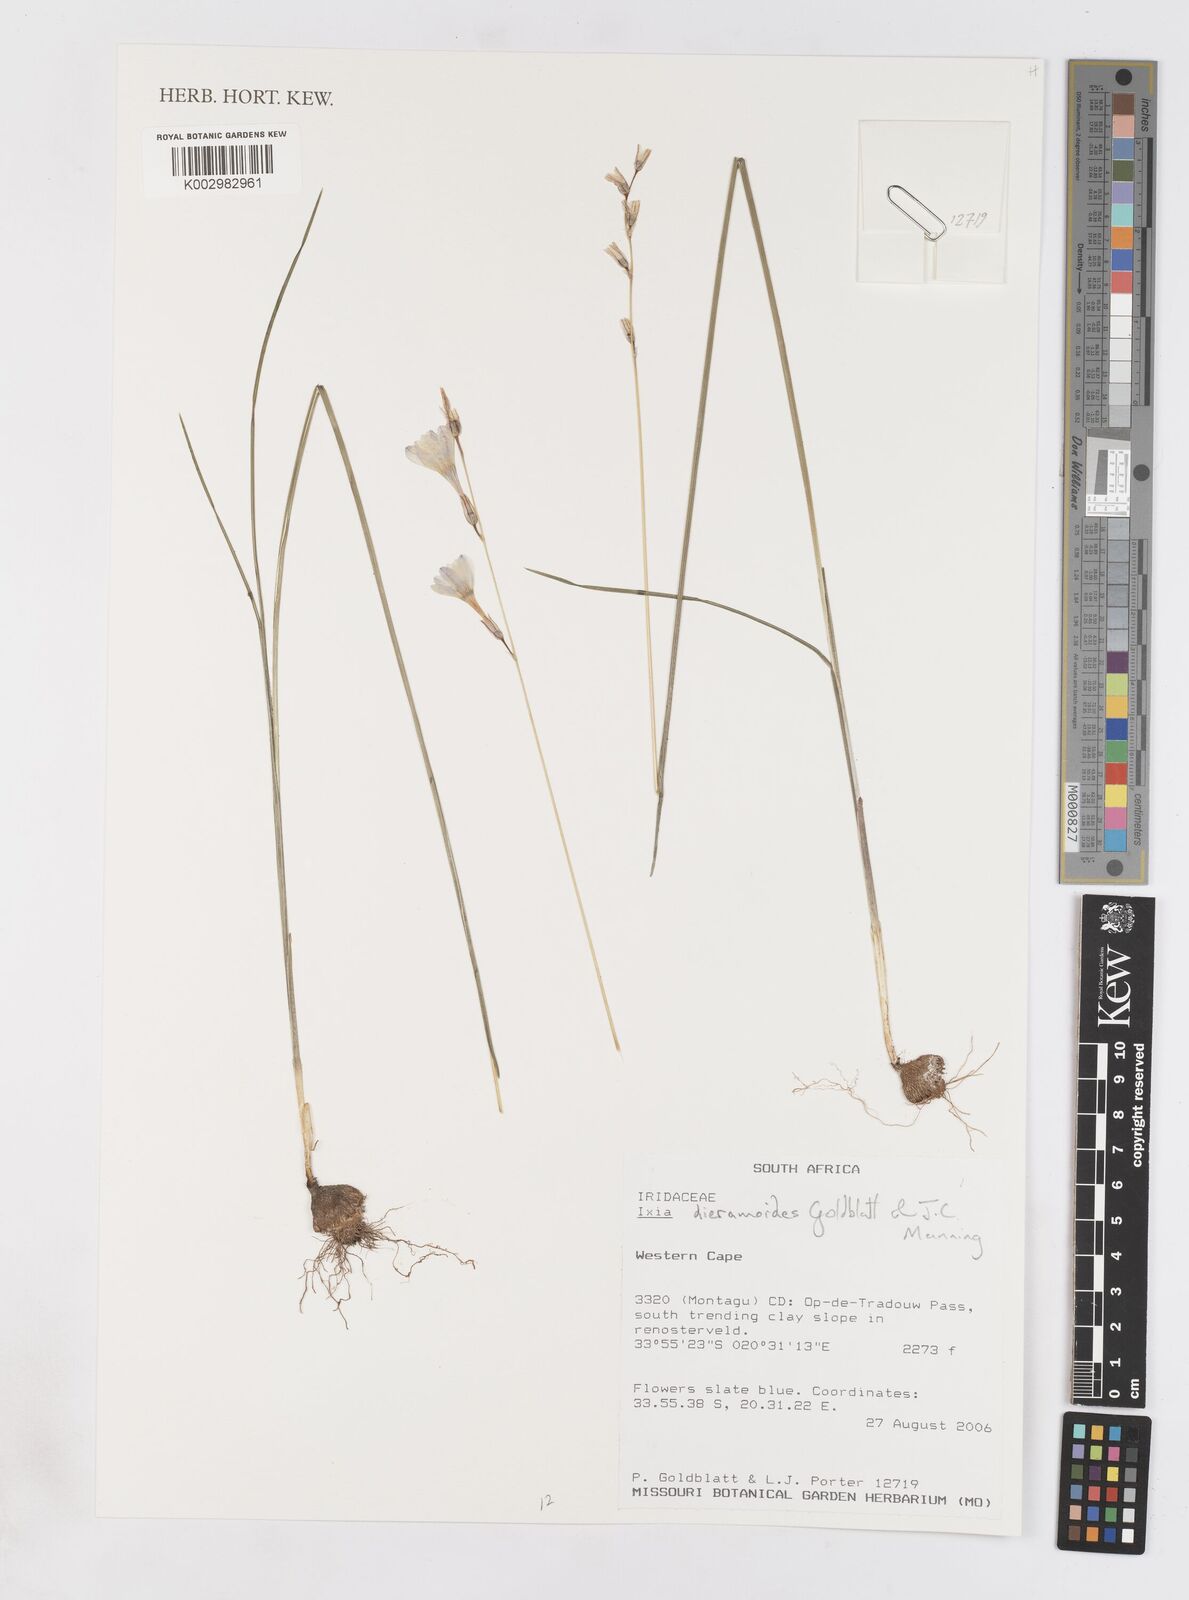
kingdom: Plantae
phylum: Tracheophyta
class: Liliopsida
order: Asparagales
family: Iridaceae
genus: Ixia
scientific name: Ixia dieramoides
